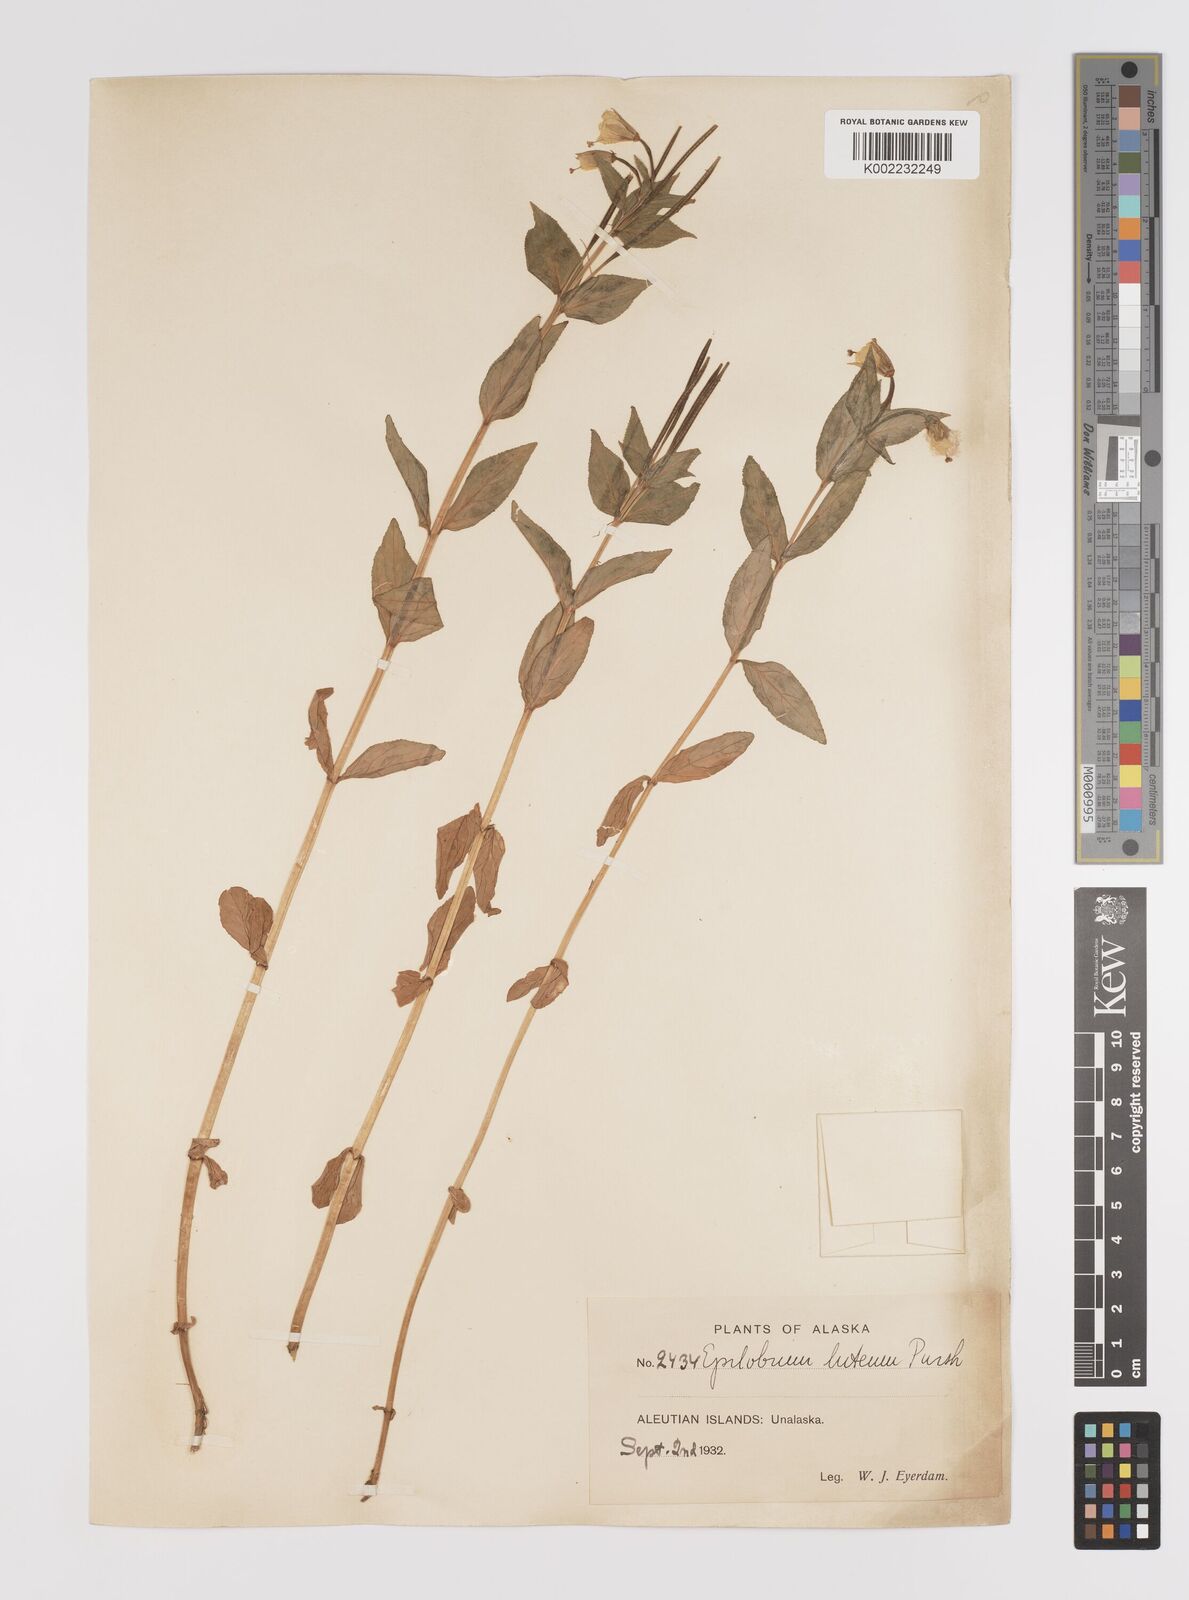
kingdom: Plantae
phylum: Tracheophyta
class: Magnoliopsida
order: Myrtales
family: Onagraceae
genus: Epilobium
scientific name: Epilobium luteum
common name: Yellow willowherb
